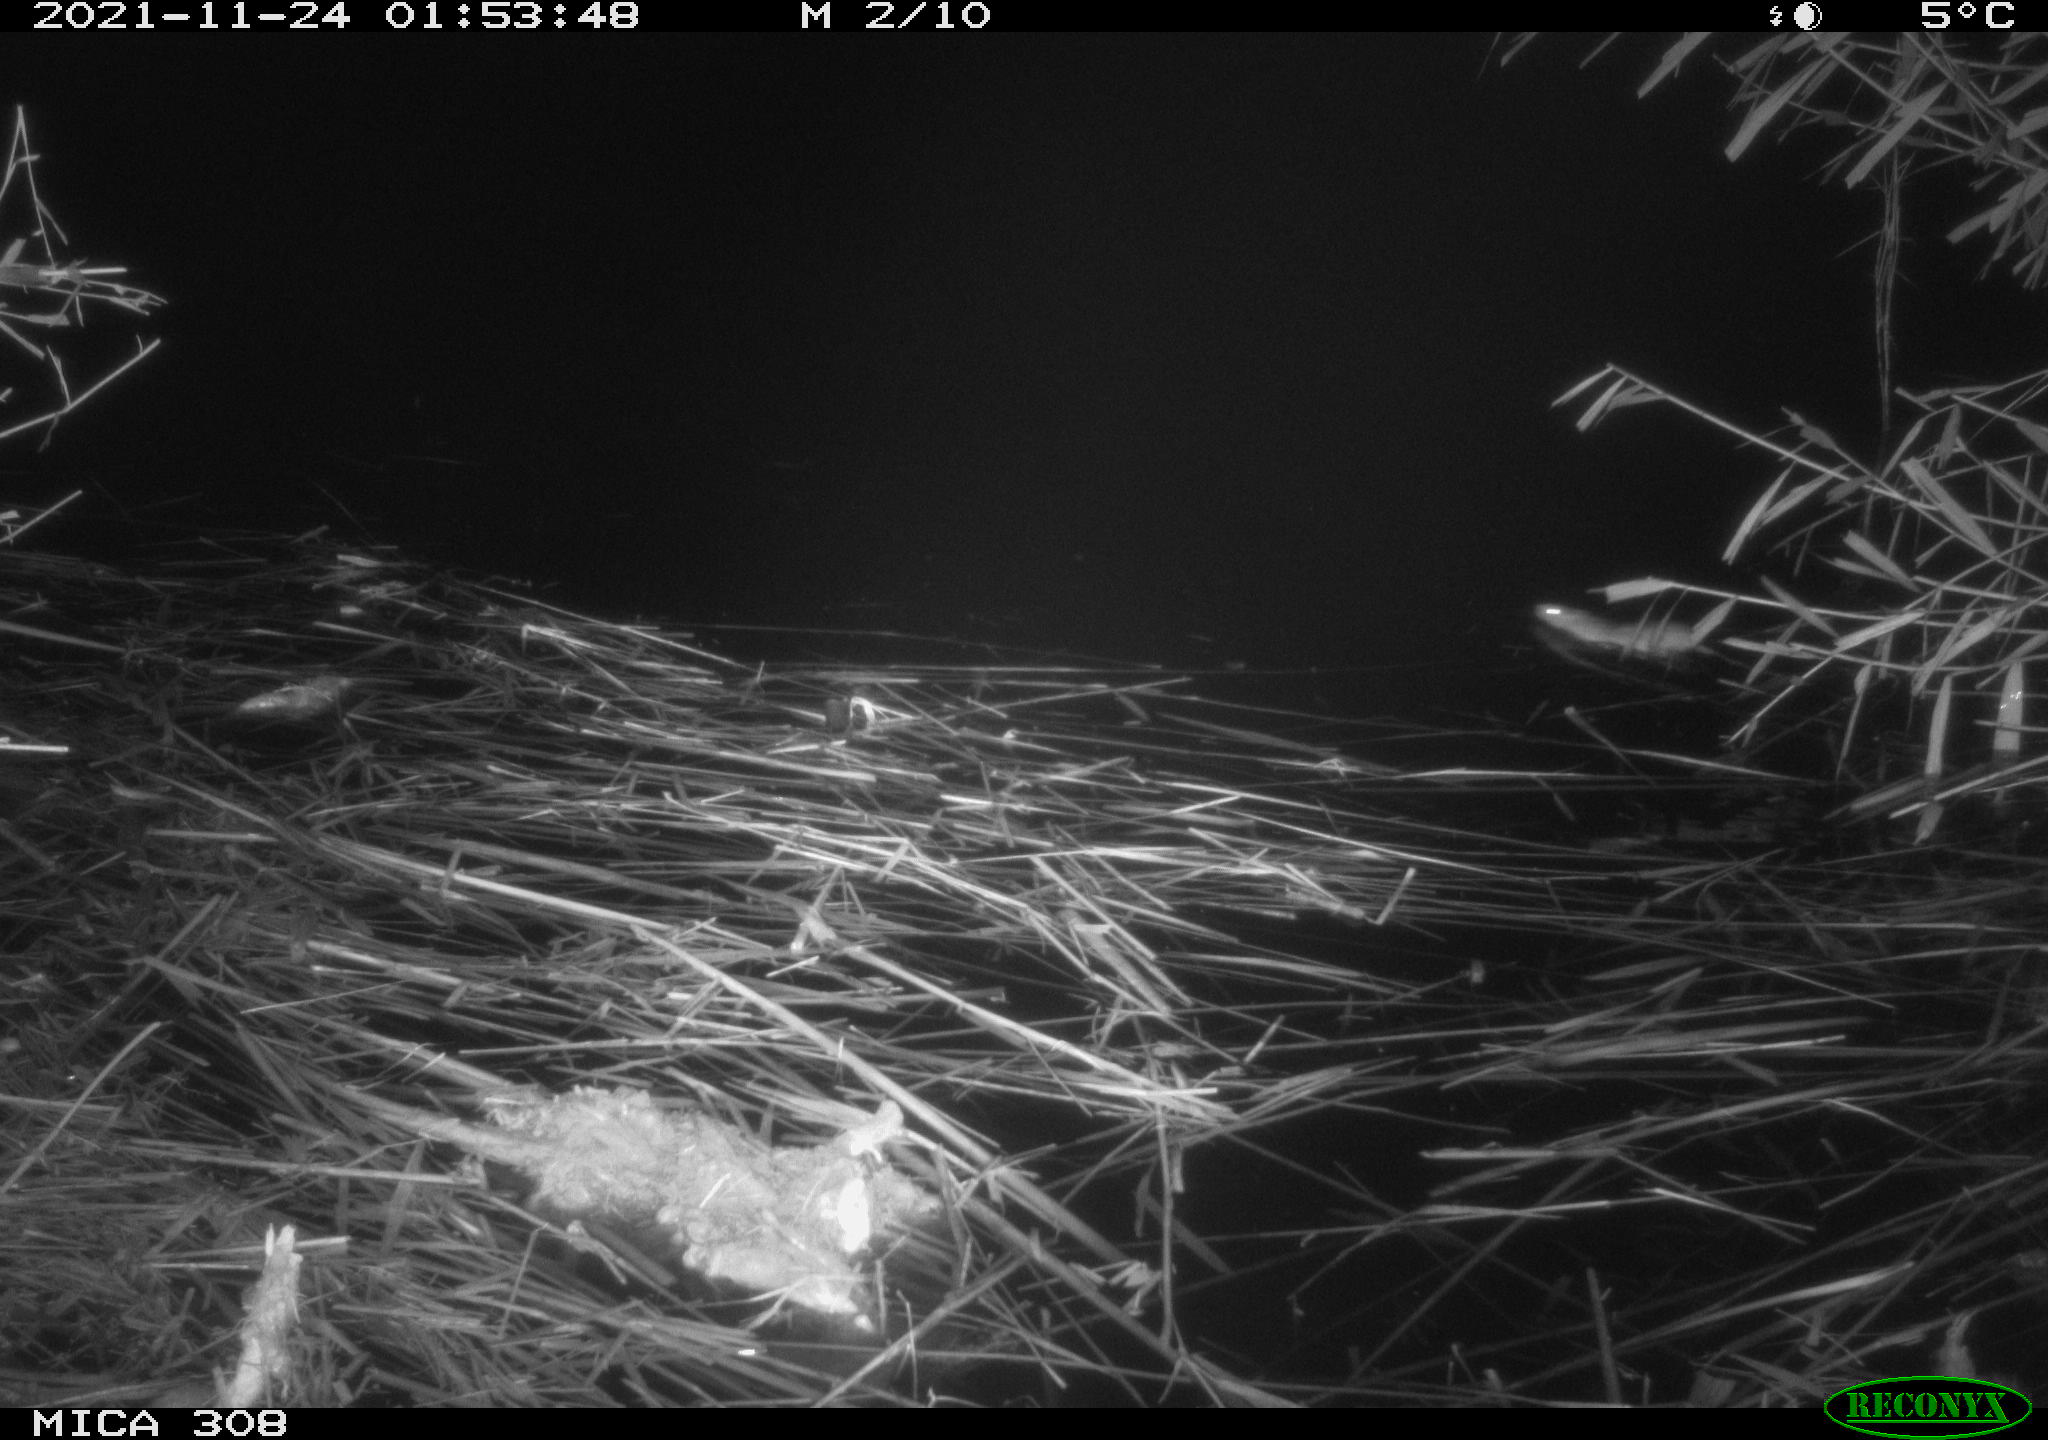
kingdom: Animalia
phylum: Chordata
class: Mammalia
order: Rodentia
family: Muridae
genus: Rattus
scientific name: Rattus norvegicus
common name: Brown rat
